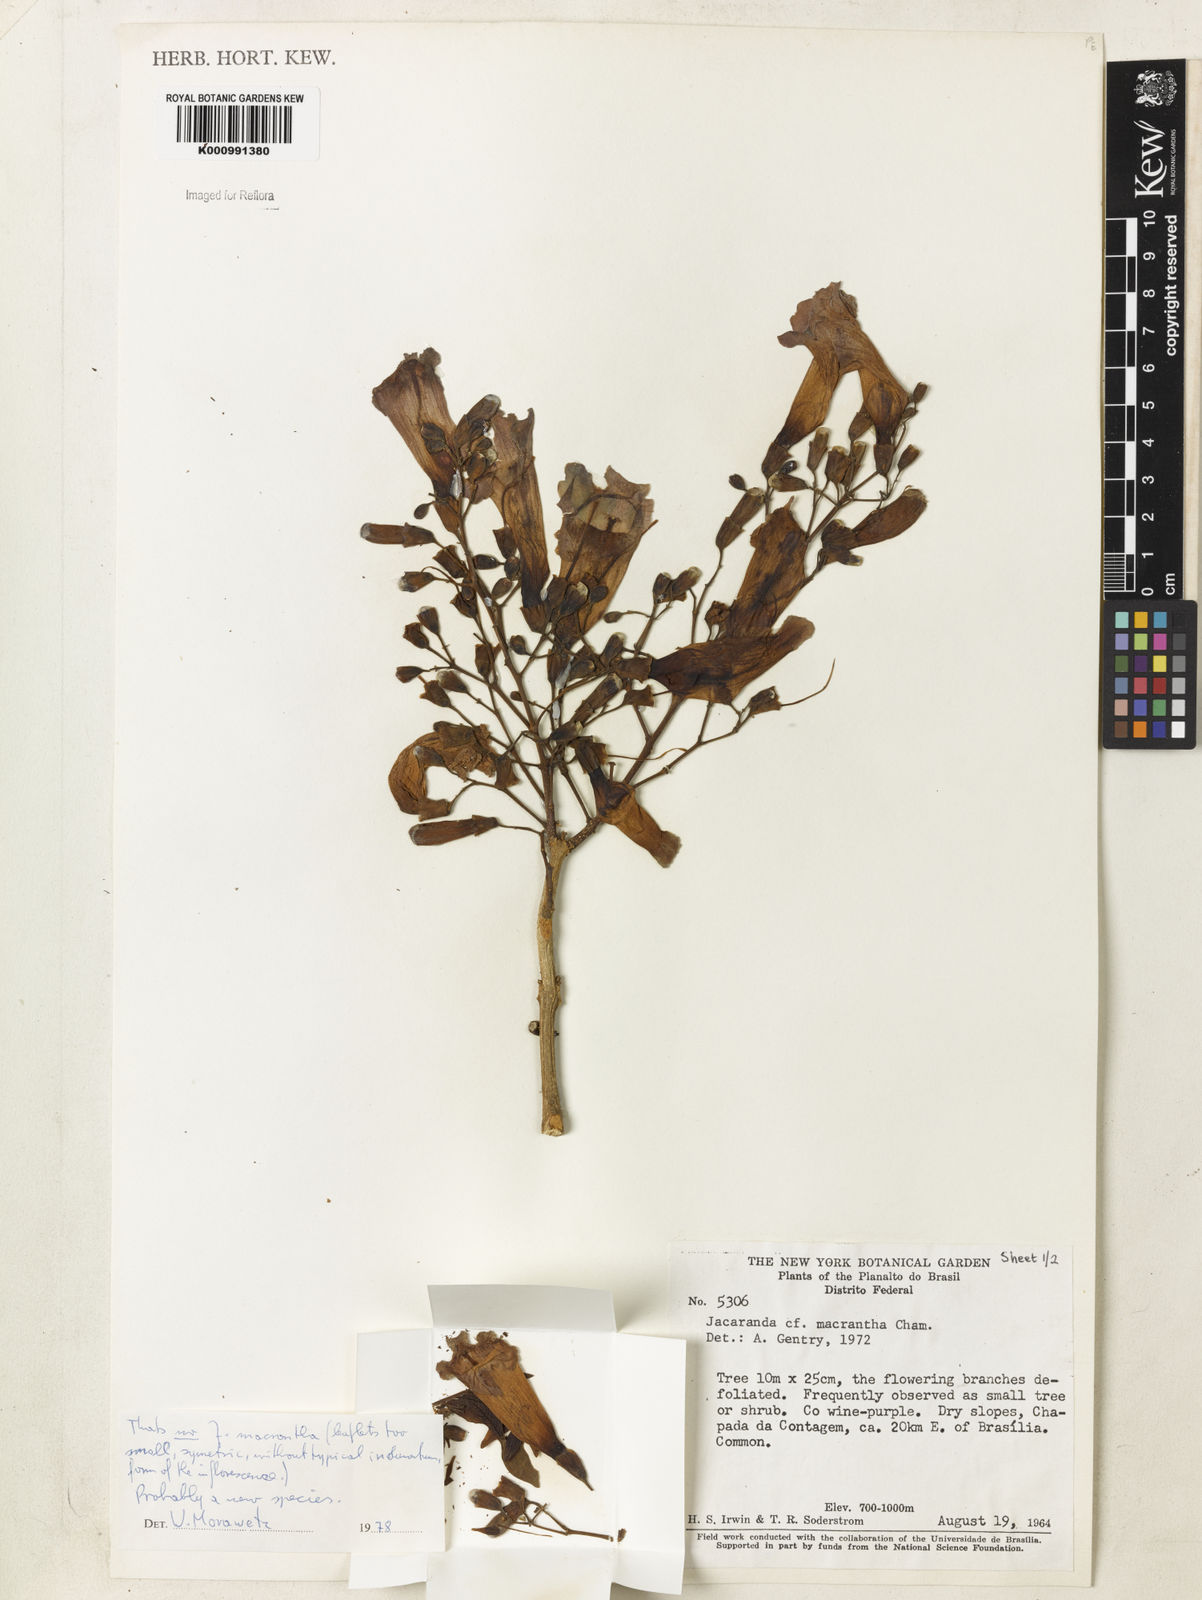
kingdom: Plantae
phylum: Tracheophyta
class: Magnoliopsida
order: Lamiales
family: Bignoniaceae
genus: Jacaranda
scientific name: Jacaranda macrantha
